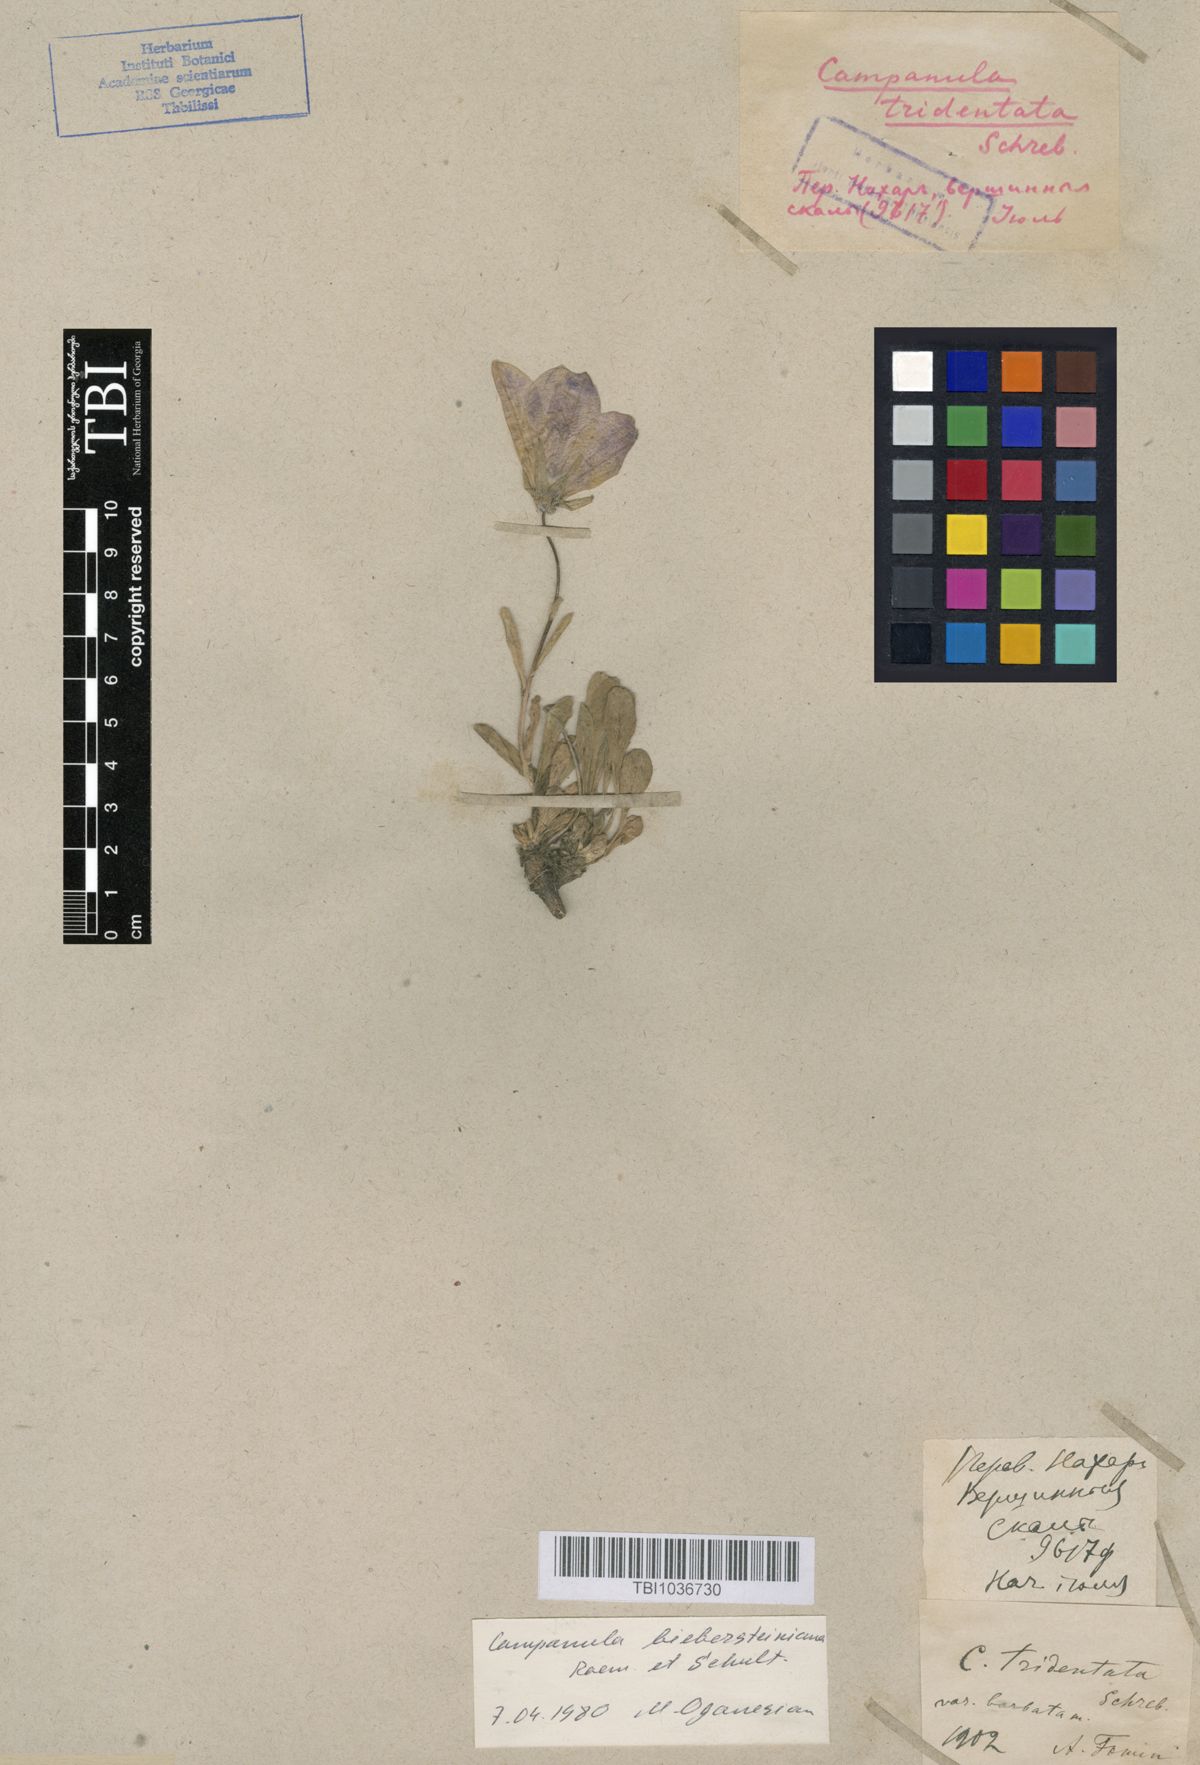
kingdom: Plantae
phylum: Tracheophyta
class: Magnoliopsida
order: Asterales
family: Campanulaceae
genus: Campanula
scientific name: Campanula tridentata
